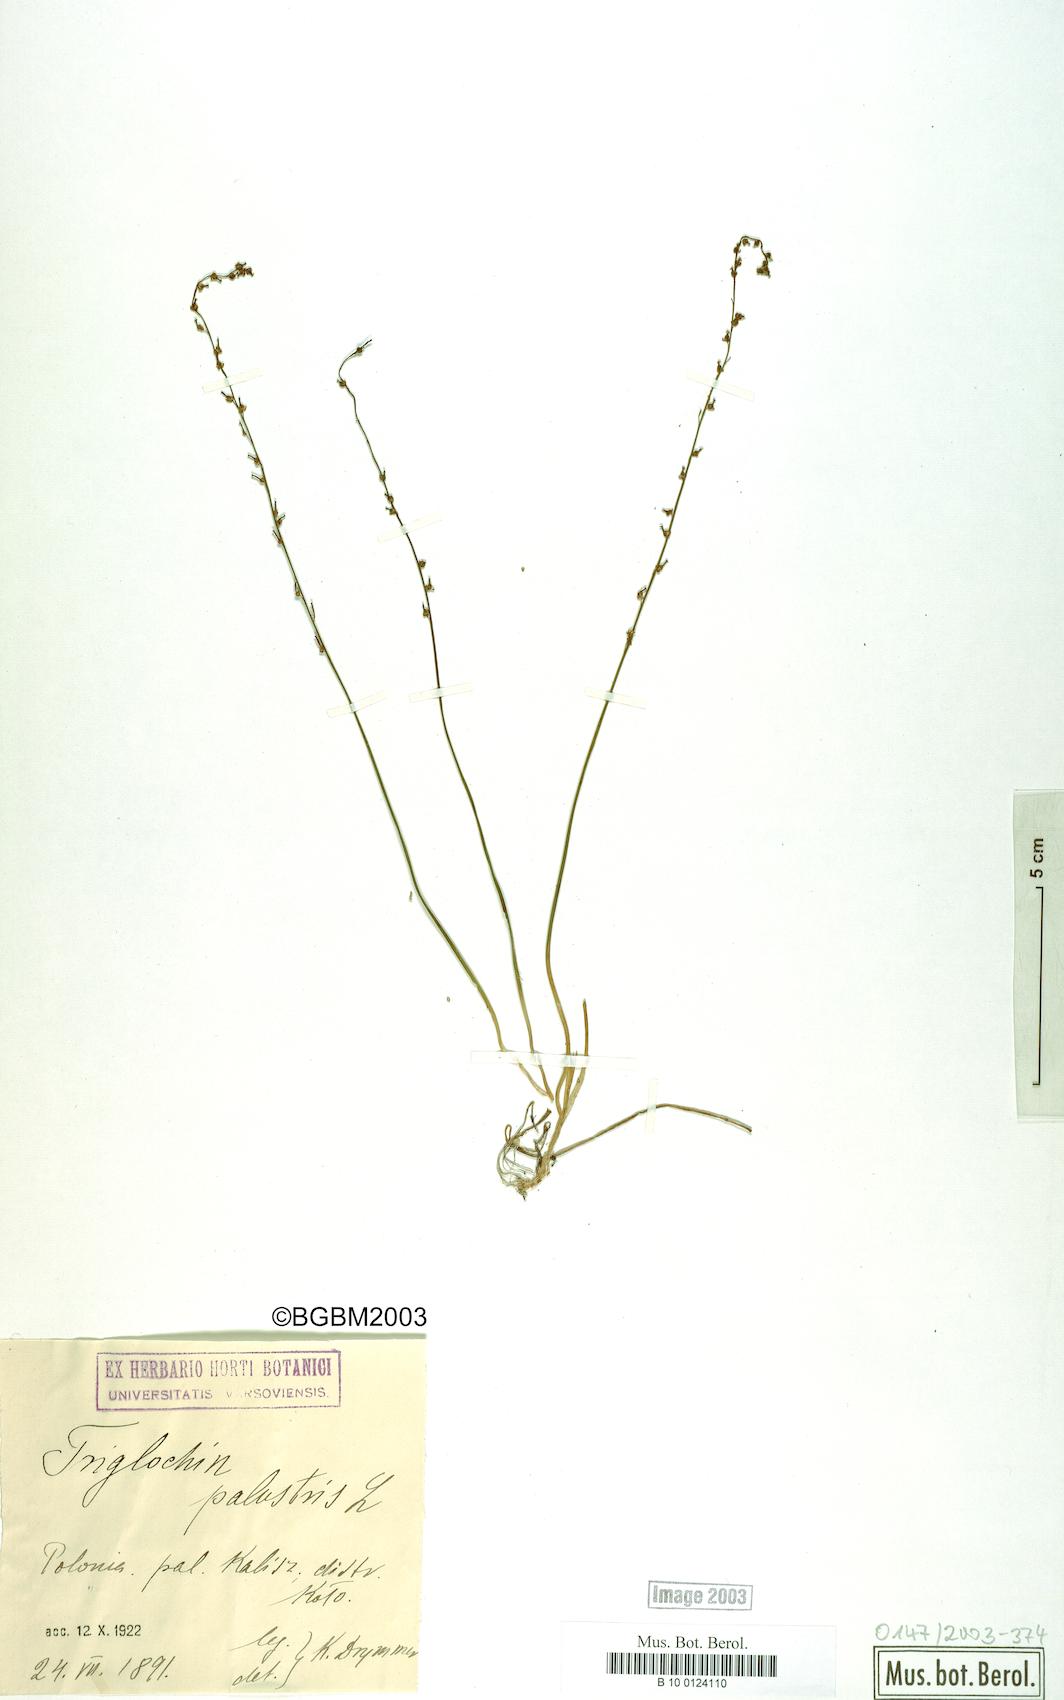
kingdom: Plantae
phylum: Tracheophyta
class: Liliopsida
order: Alismatales
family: Juncaginaceae
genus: Triglochin
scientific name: Triglochin palustris
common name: Marsh arrowgrass
